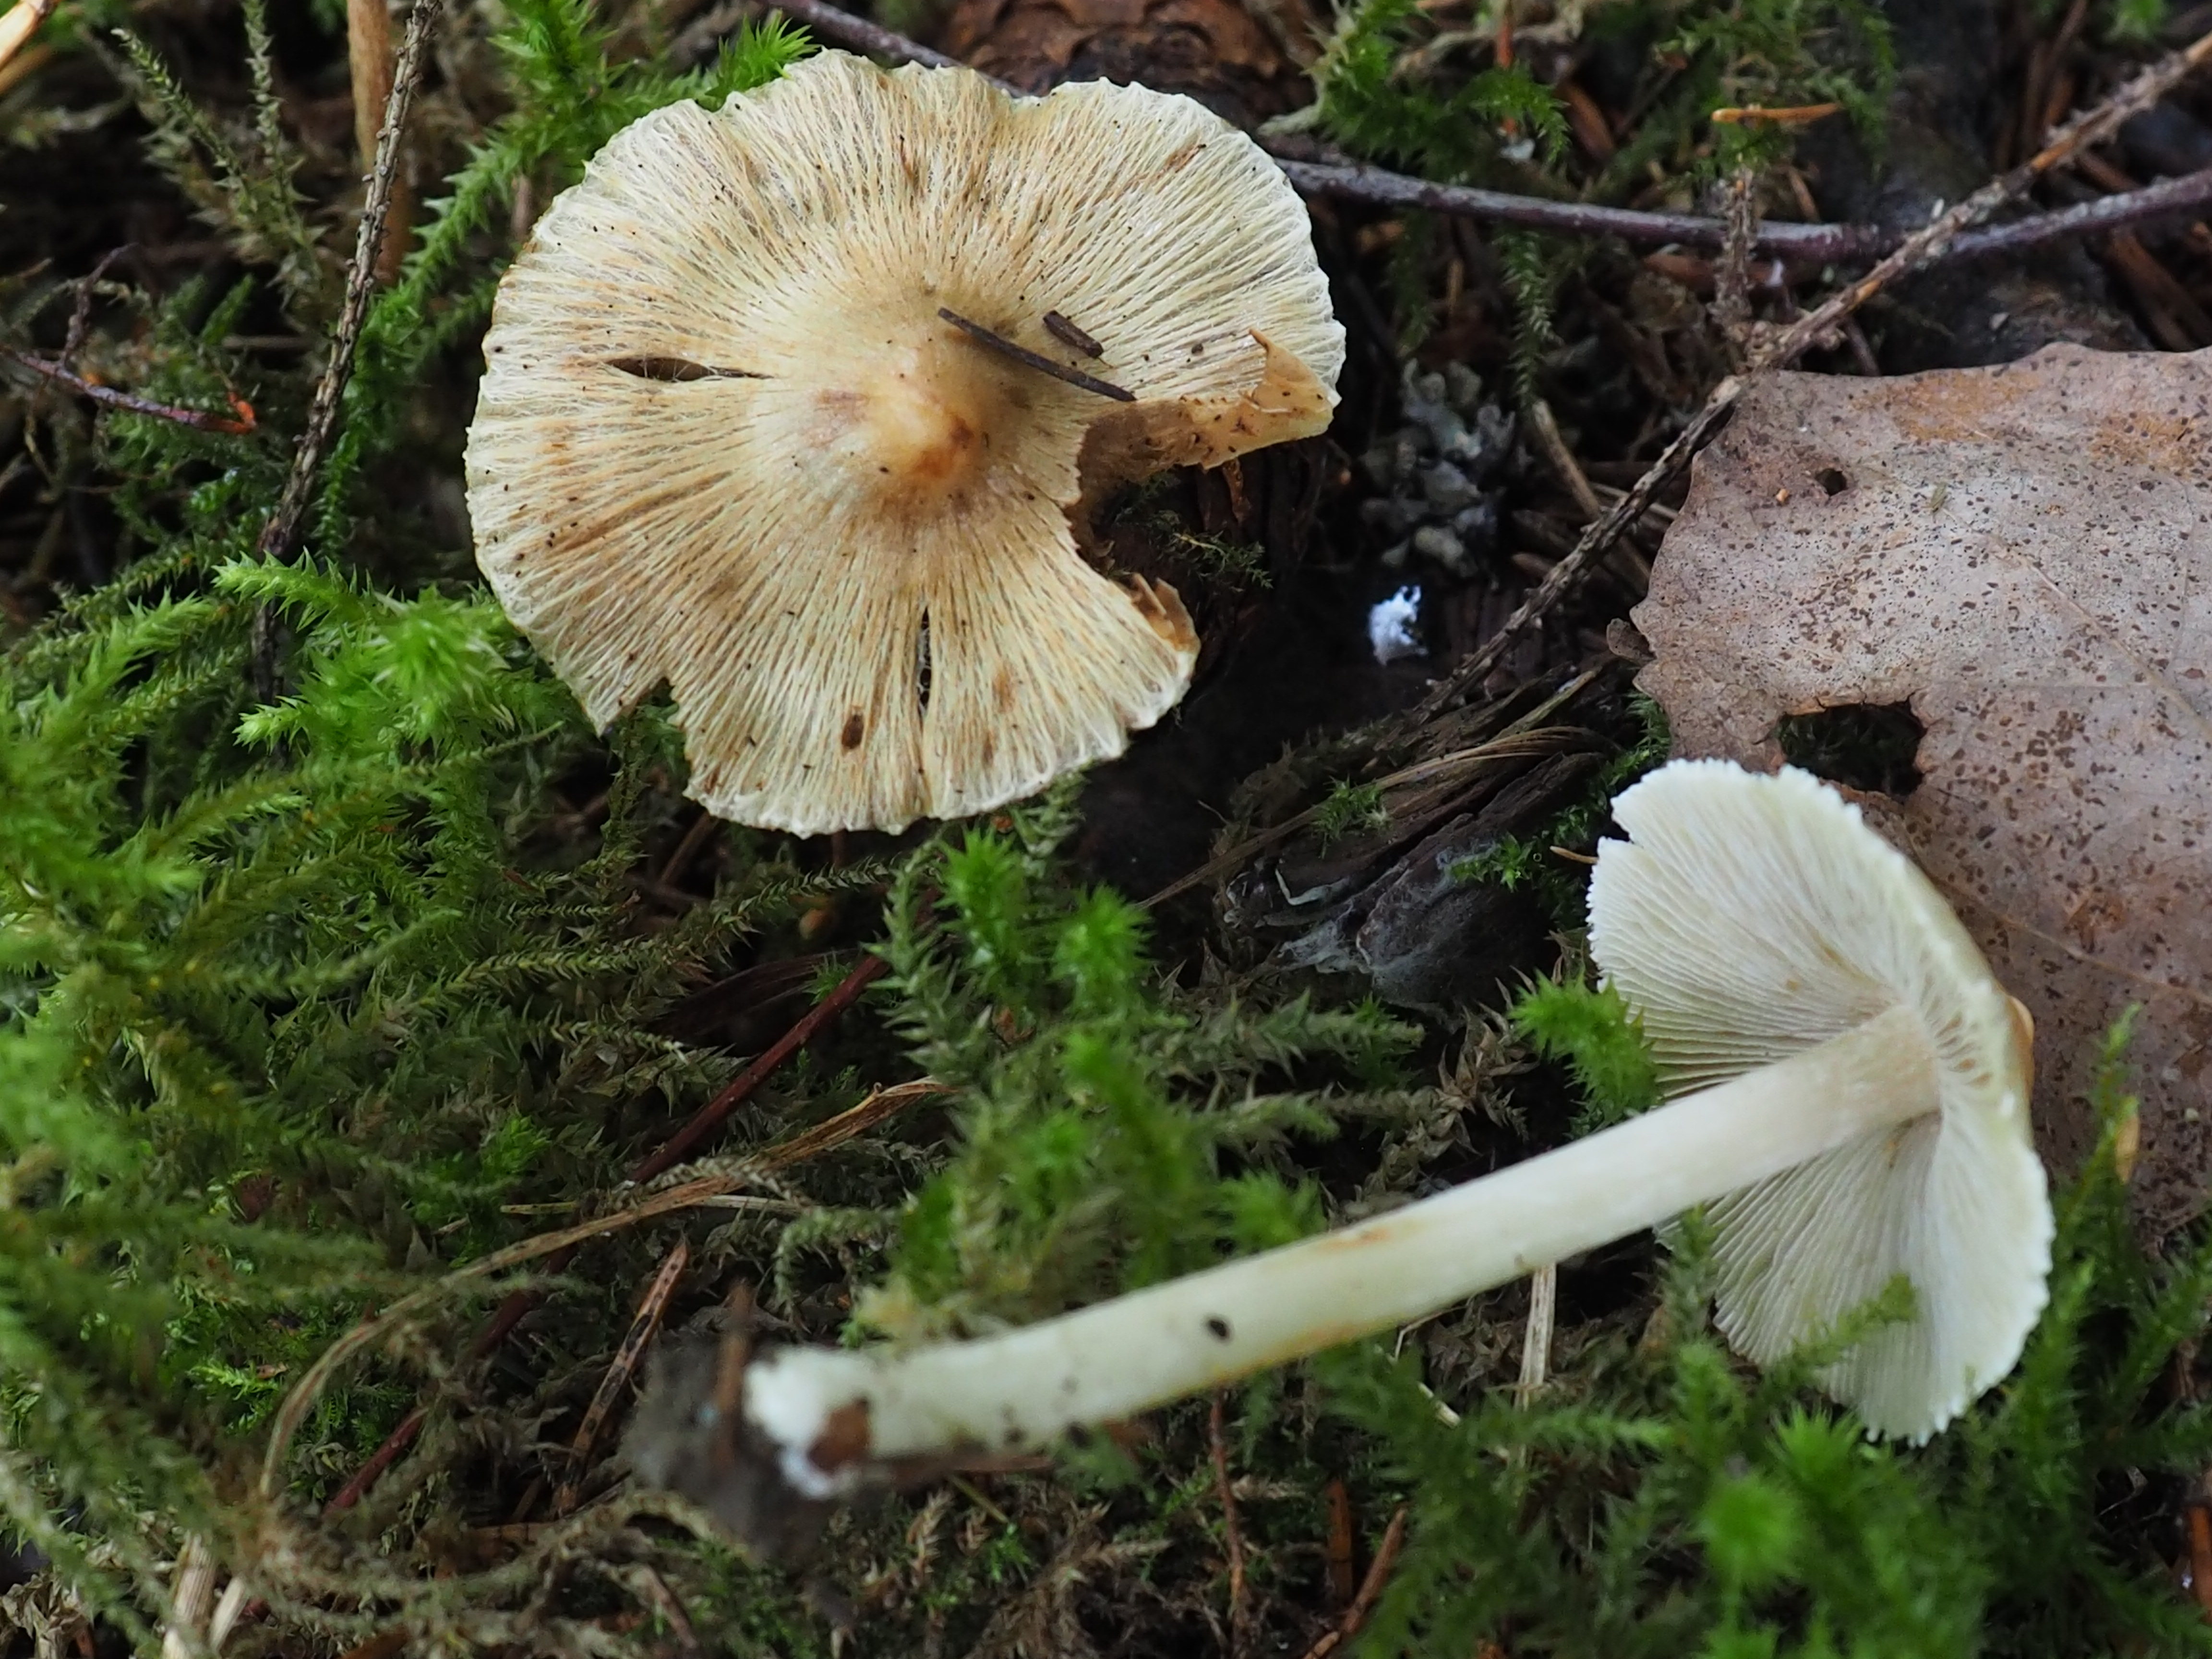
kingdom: Fungi
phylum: Basidiomycota
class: Agaricomycetes
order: Agaricales
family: Inocybaceae
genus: Pseudosperma
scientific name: Pseudosperma rimosum
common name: Split fibrecap
